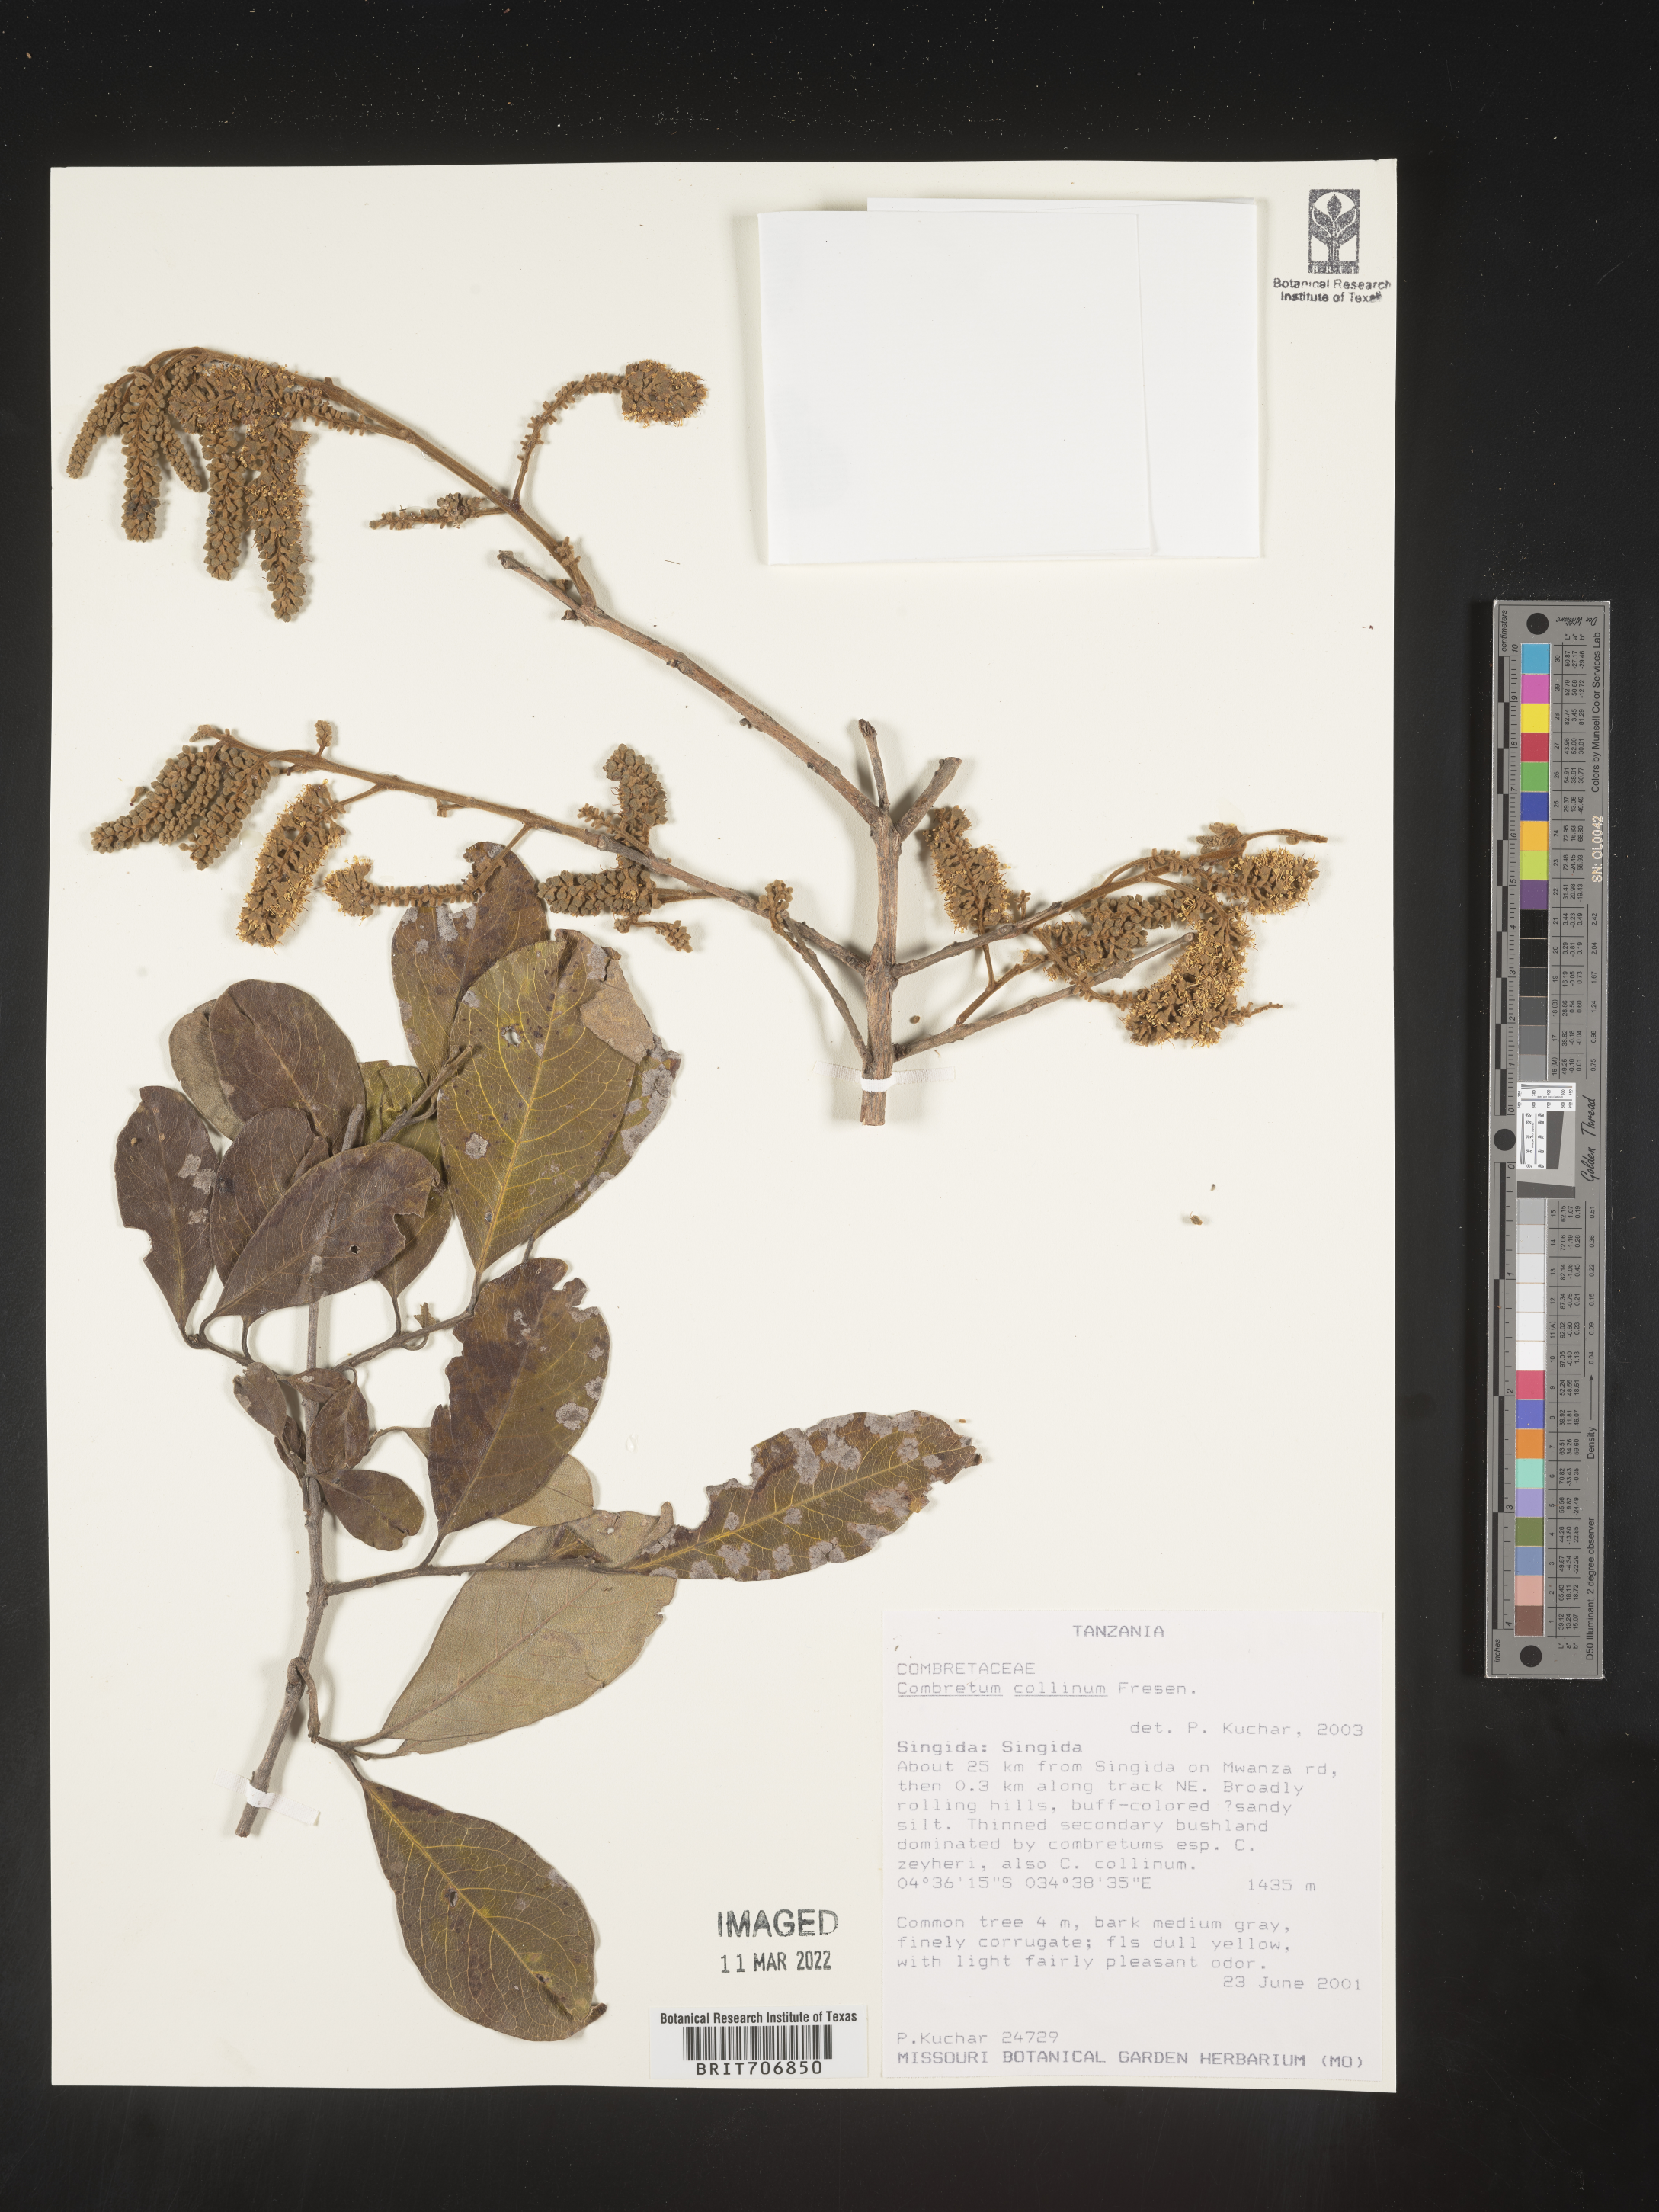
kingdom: Plantae
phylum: Tracheophyta
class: Magnoliopsida
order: Myrtales
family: Combretaceae
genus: Combretum
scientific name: Combretum
